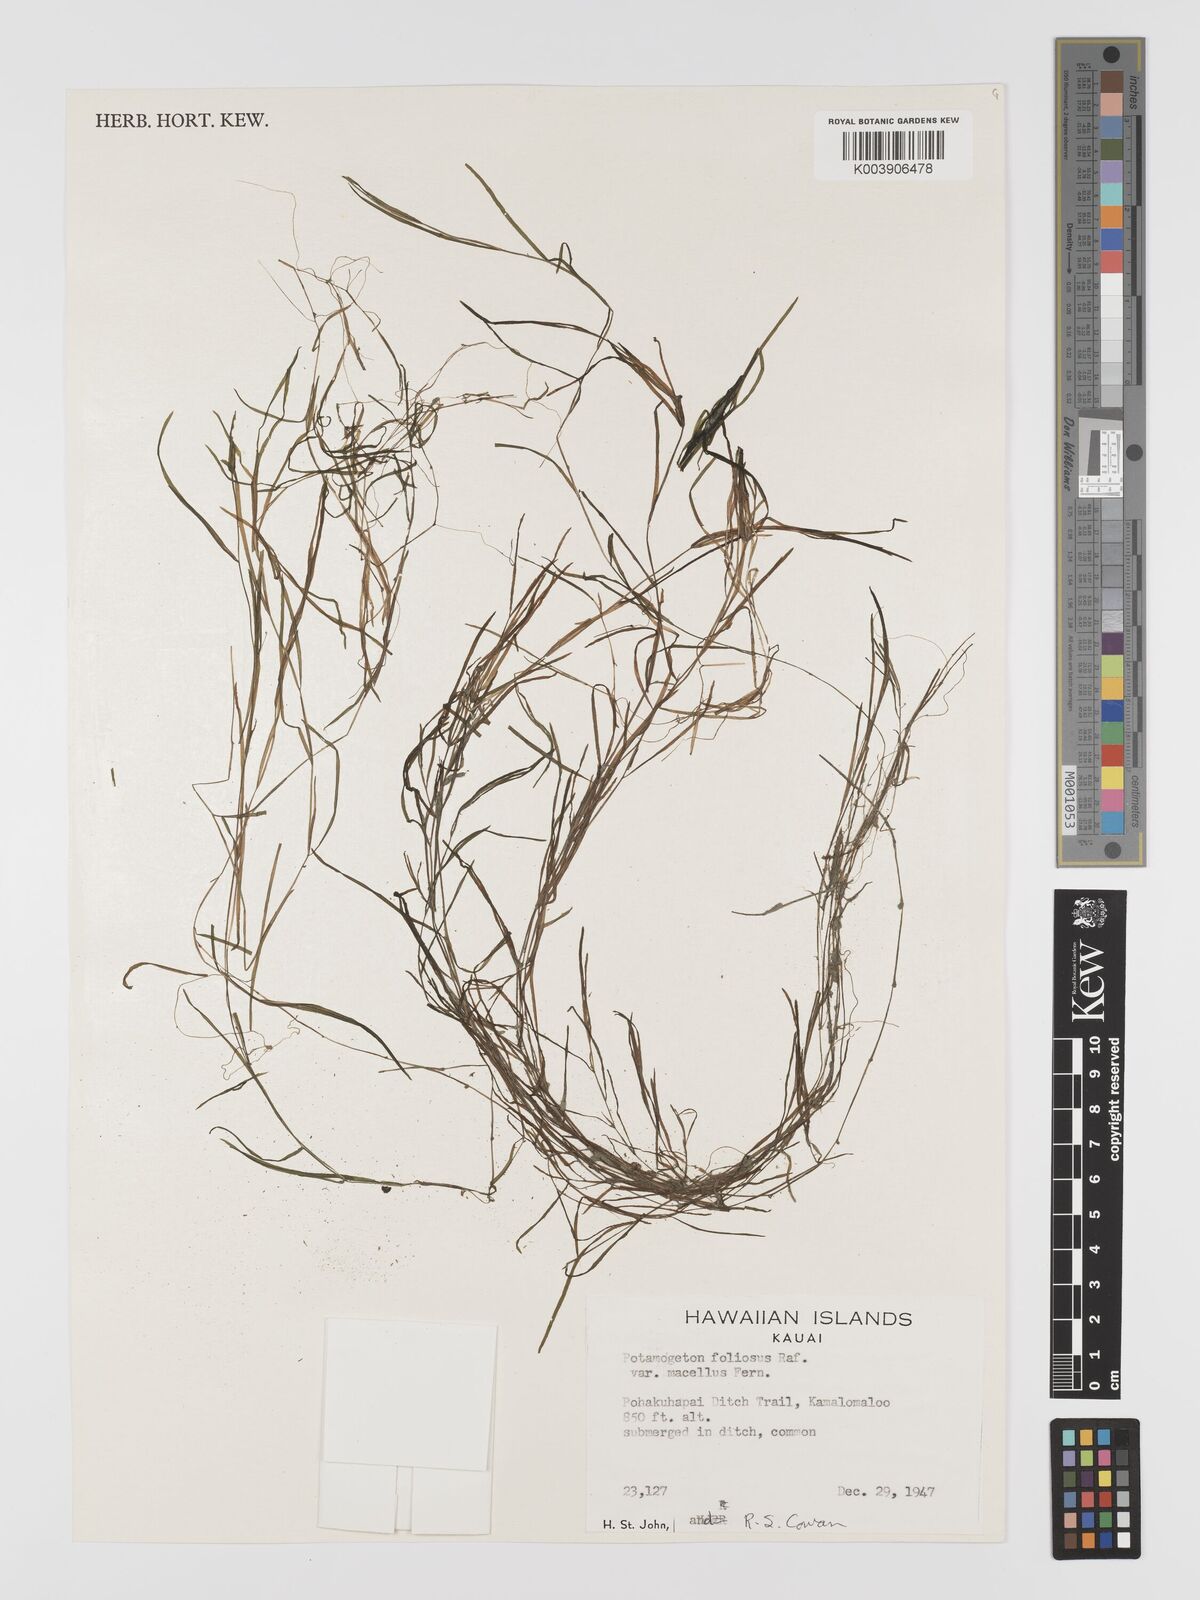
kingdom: Plantae
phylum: Tracheophyta
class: Liliopsida
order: Alismatales
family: Potamogetonaceae
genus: Potamogeton
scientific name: Potamogeton foliosus
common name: Leafy pondweed
